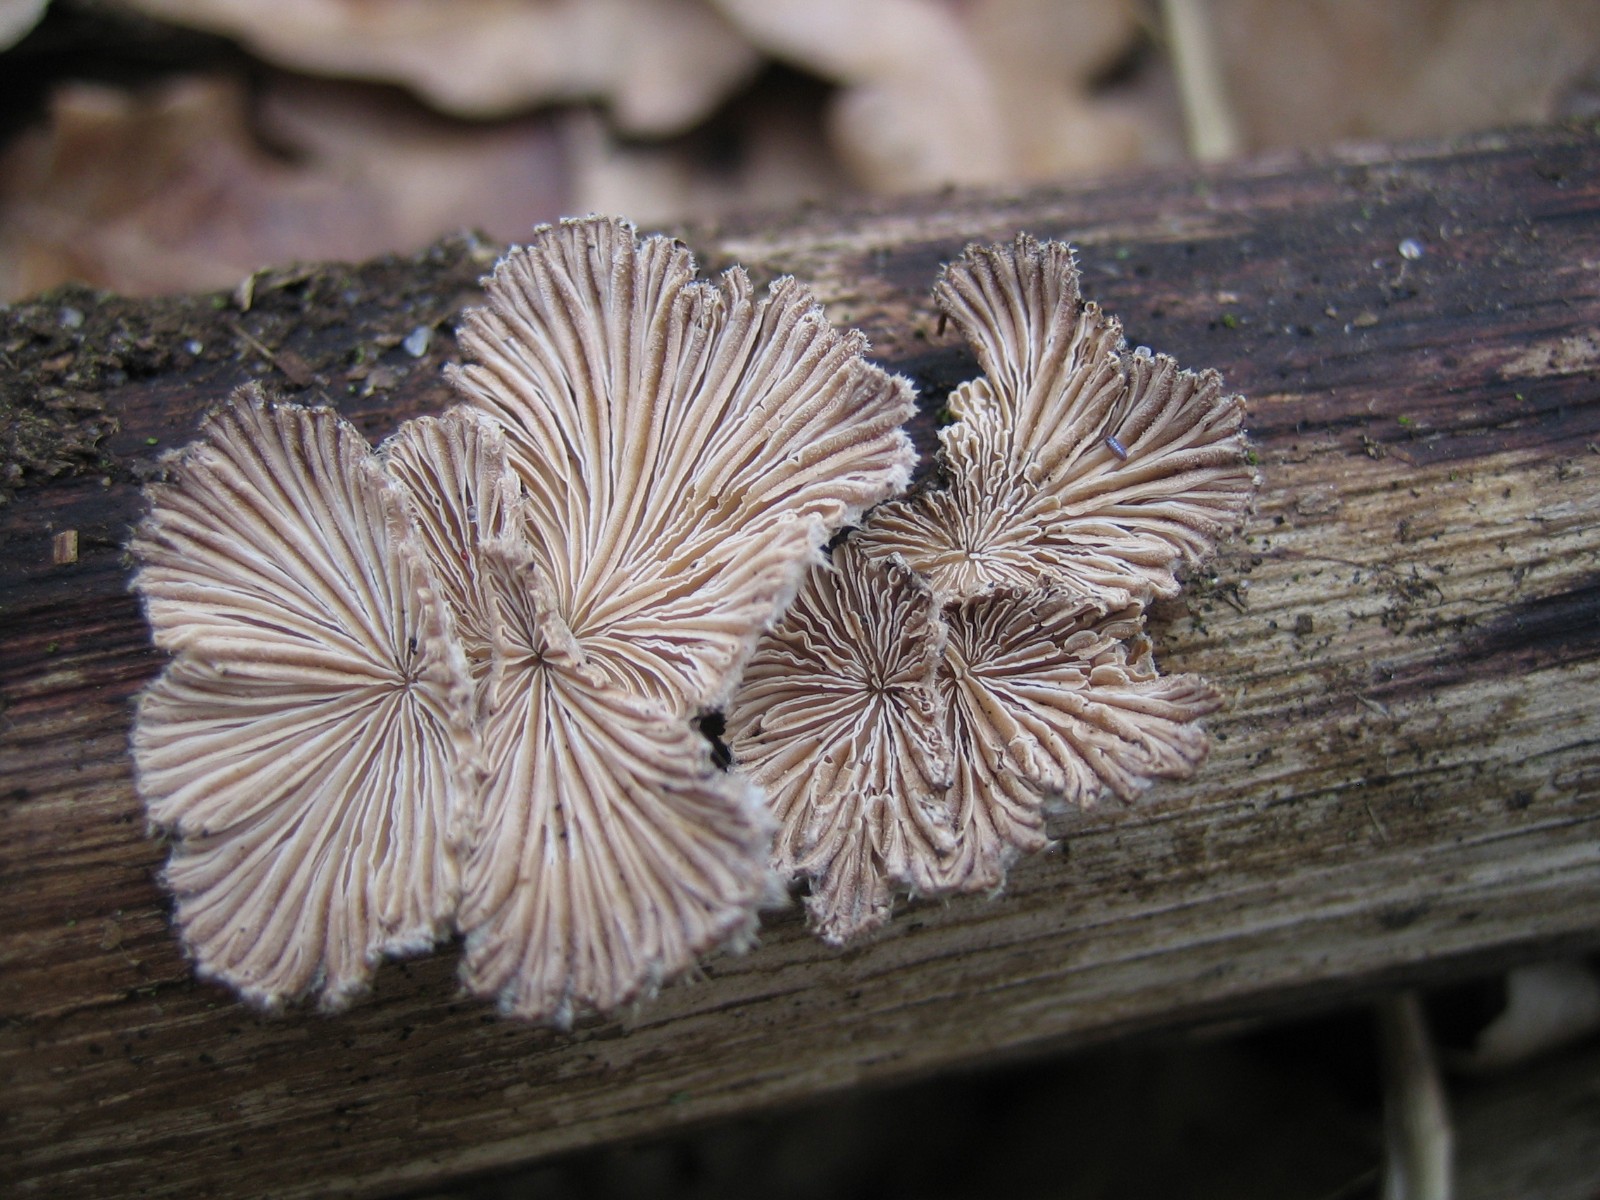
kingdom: Fungi
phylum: Basidiomycota
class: Agaricomycetes
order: Agaricales
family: Schizophyllaceae
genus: Schizophyllum
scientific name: Schizophyllum commune
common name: kløvblad
